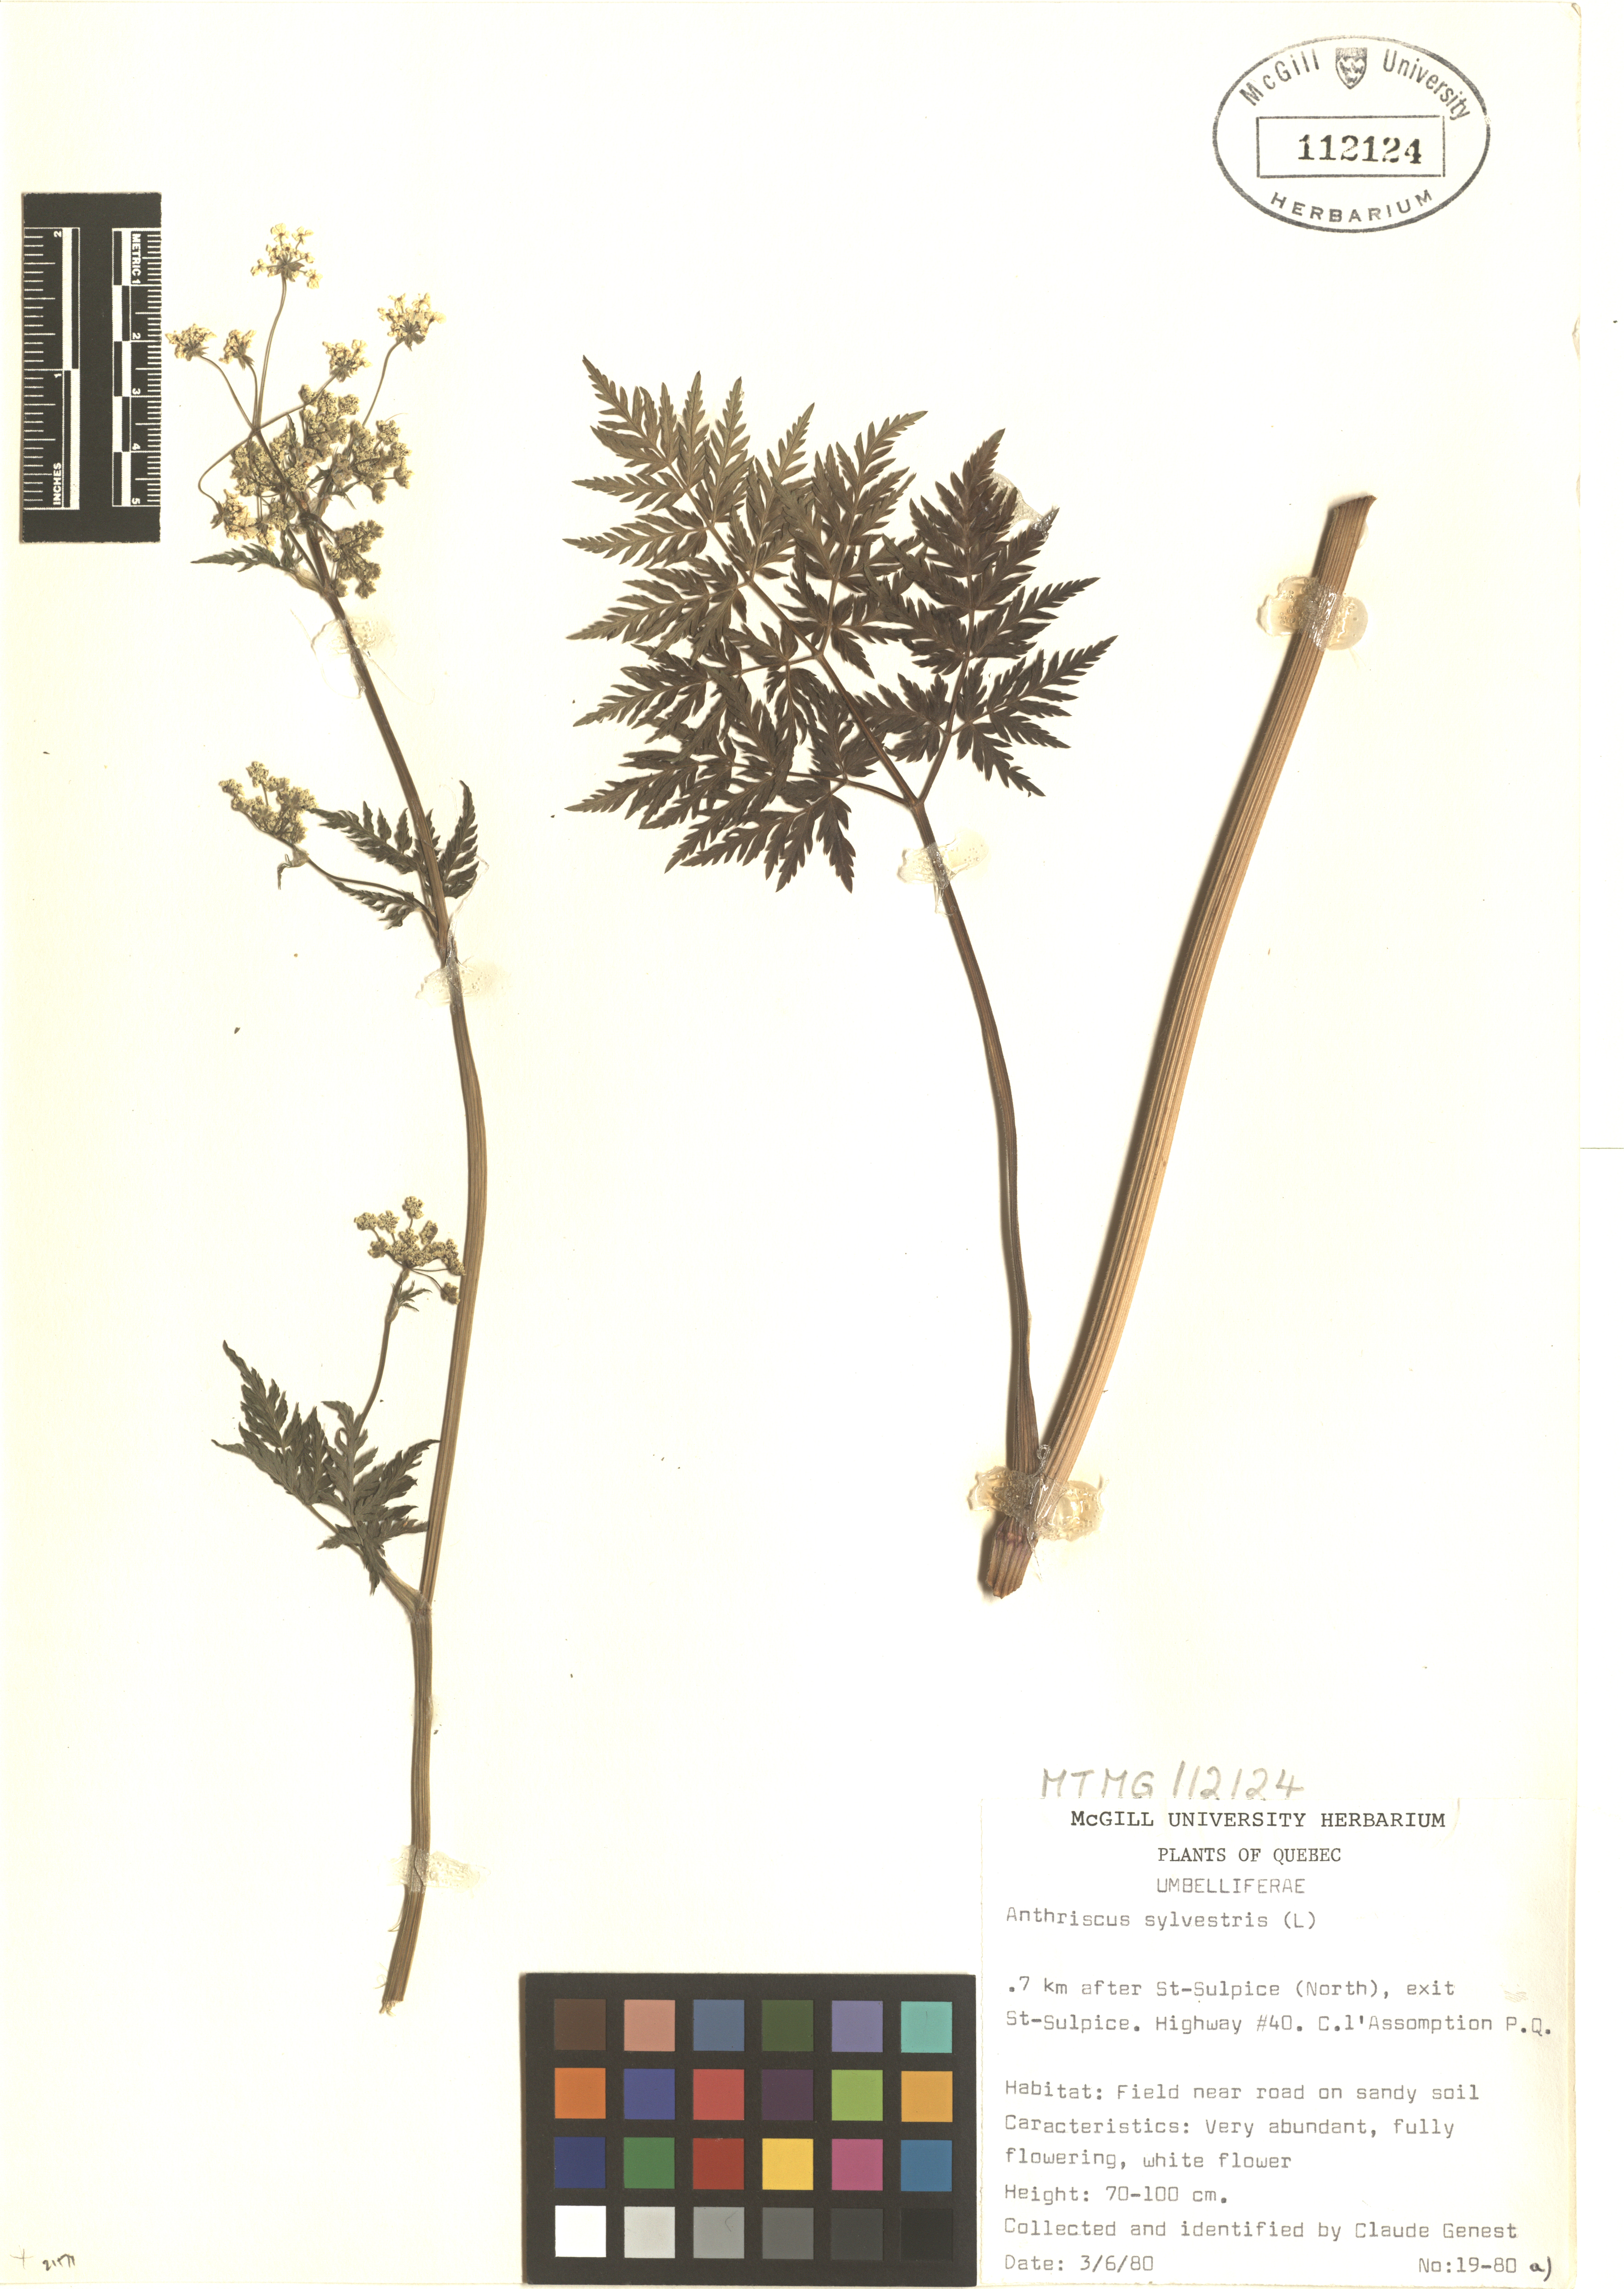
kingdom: Plantae
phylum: Tracheophyta
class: Magnoliopsida
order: Apiales
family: Apiaceae
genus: Anthriscus
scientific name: Anthriscus sylvestris
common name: Cow parsley
